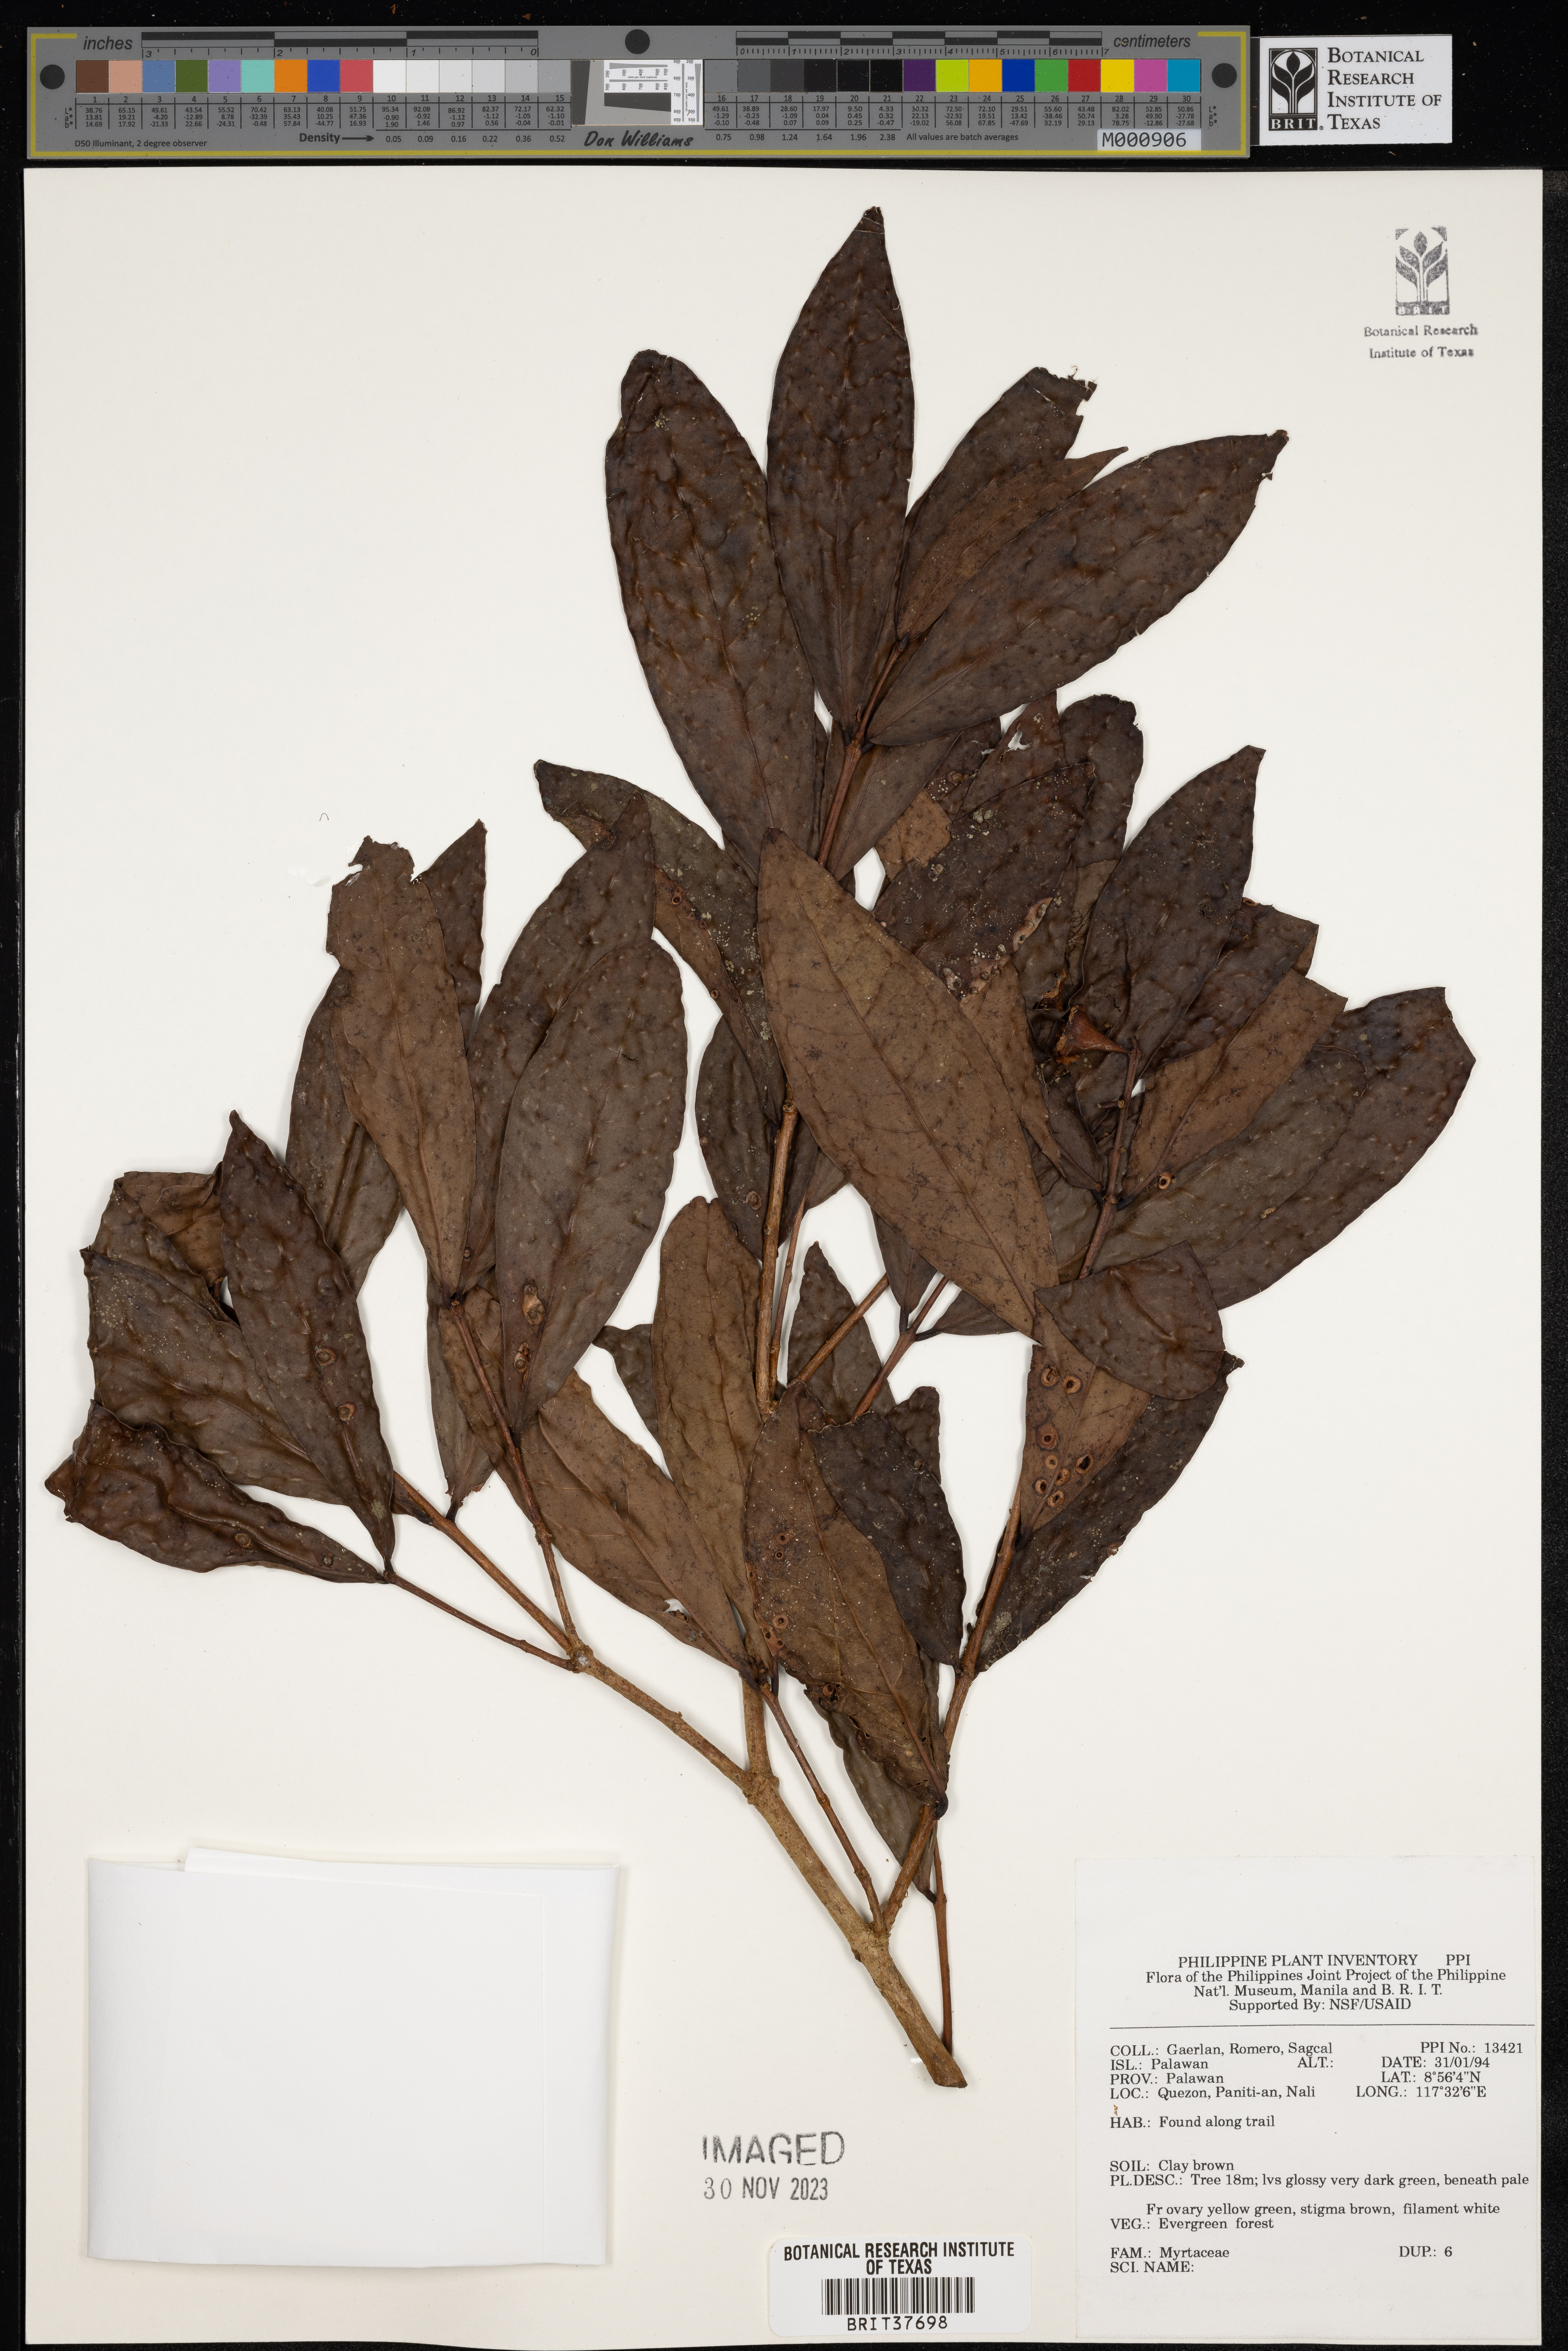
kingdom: Plantae
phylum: Tracheophyta
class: Magnoliopsida
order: Myrtales
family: Myrtaceae
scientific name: Myrtaceae
